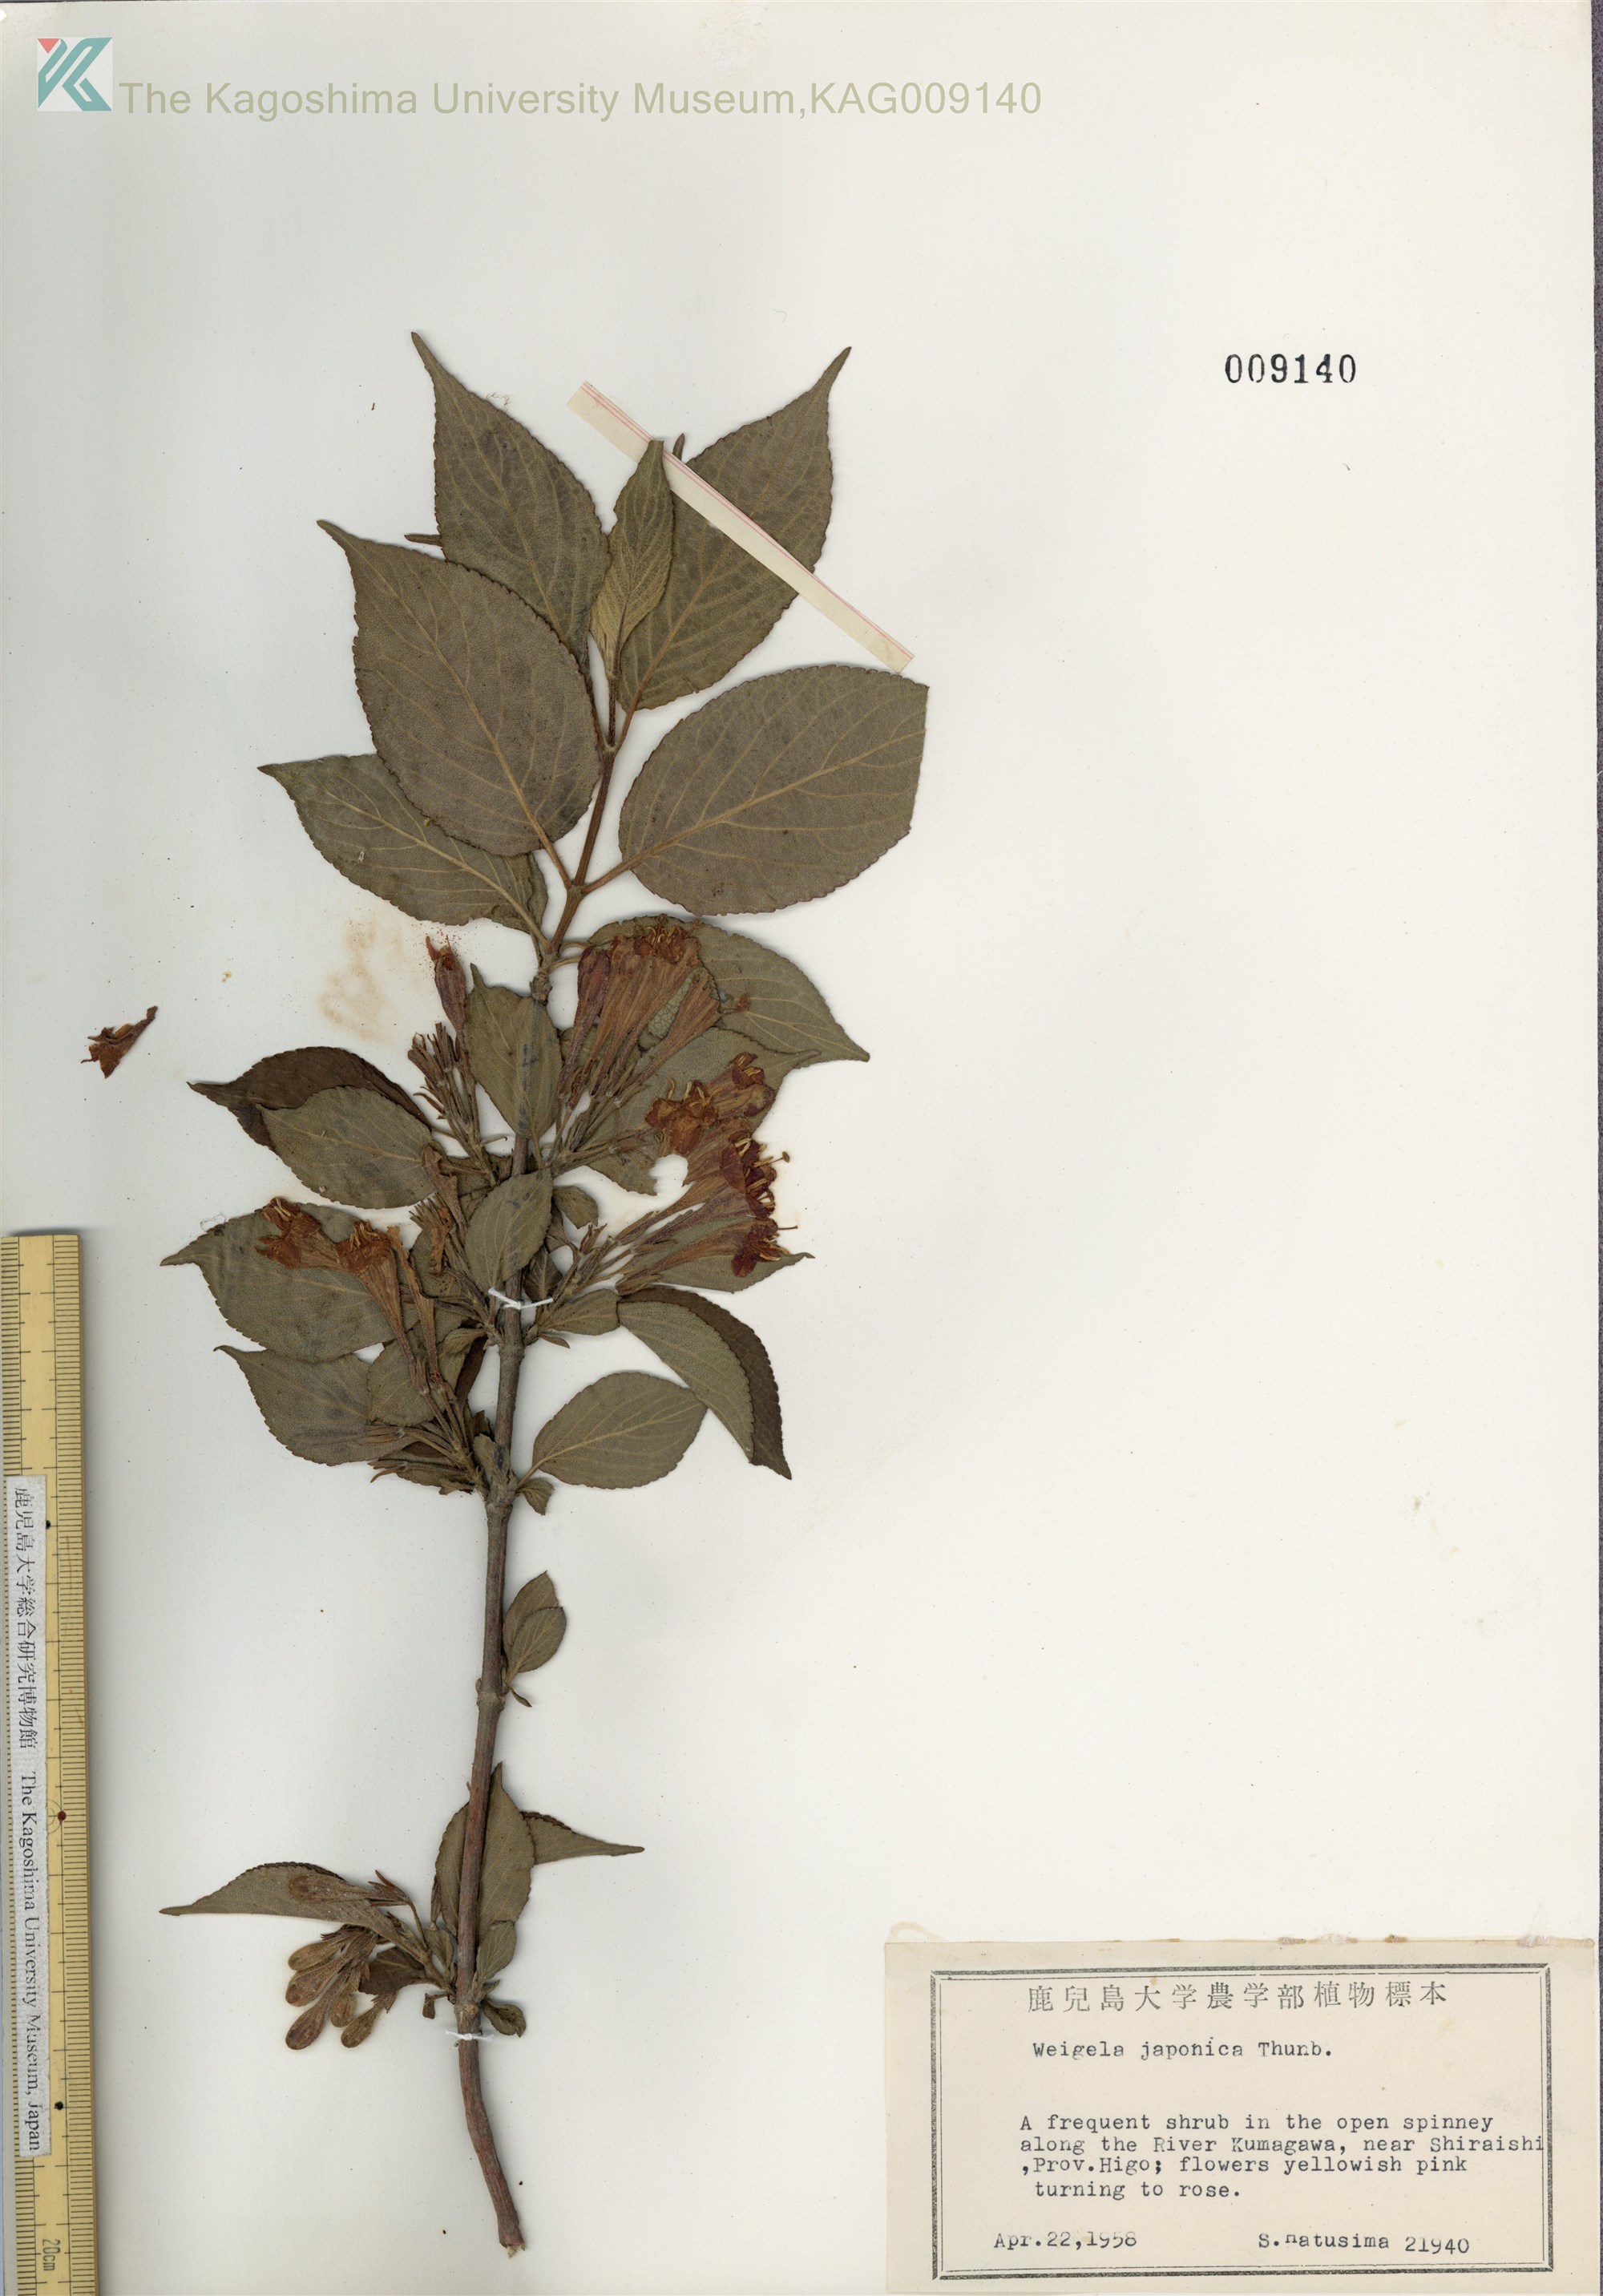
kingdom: Plantae
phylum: Tracheophyta
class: Magnoliopsida
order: Dipsacales
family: Caprifoliaceae
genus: Weigela
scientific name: Weigela japonica
